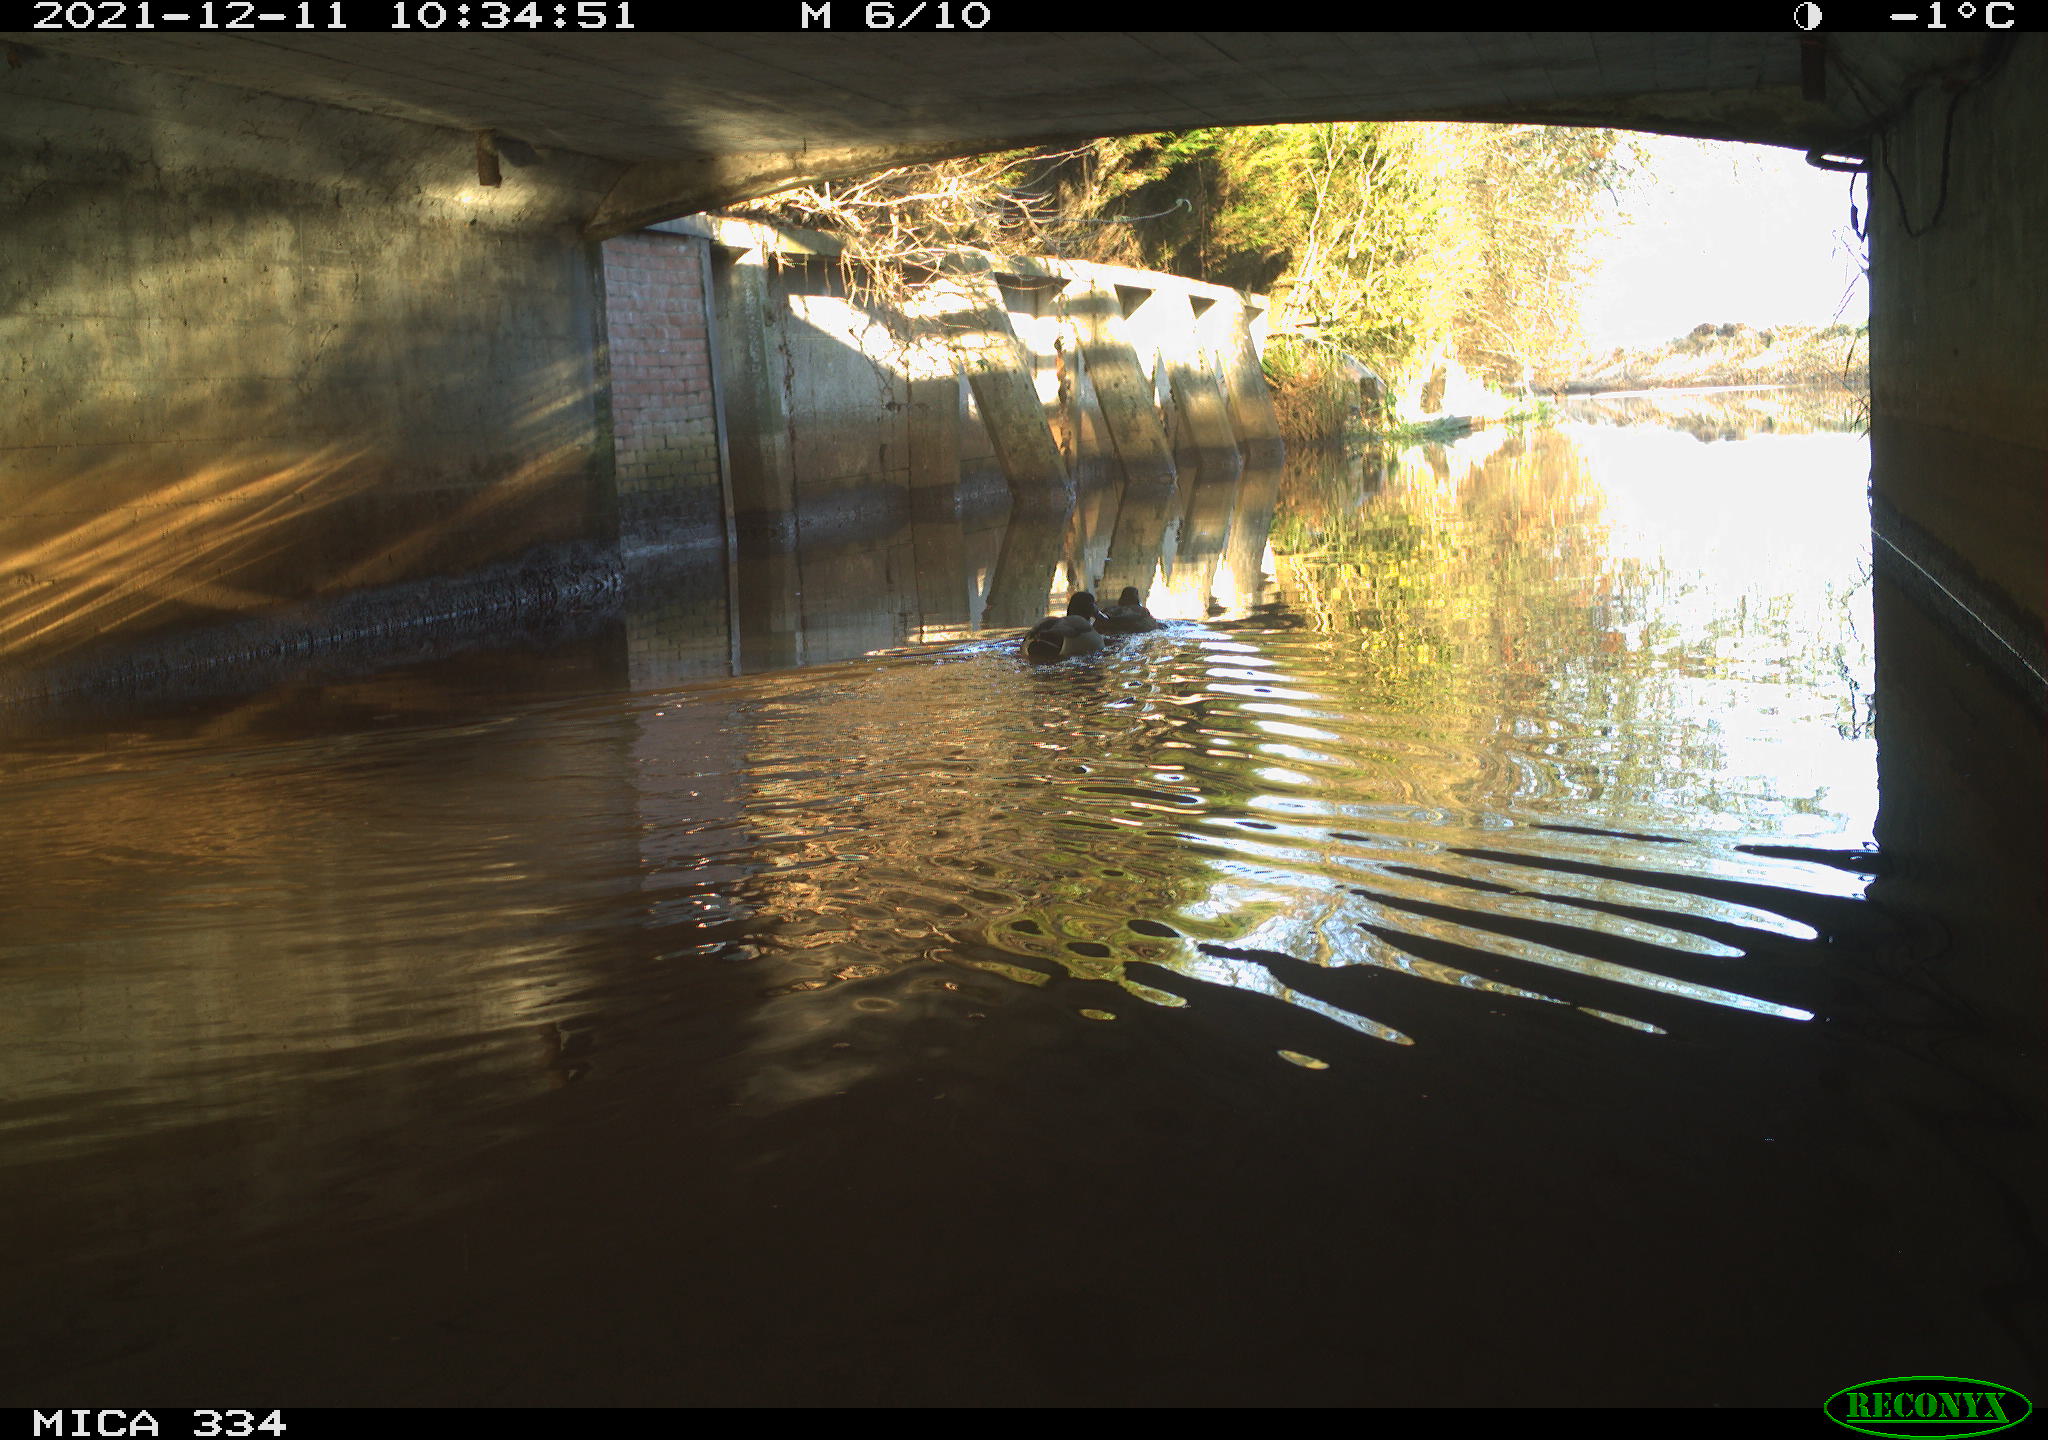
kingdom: Animalia
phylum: Chordata
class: Aves
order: Anseriformes
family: Anatidae
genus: Anas
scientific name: Anas platyrhynchos
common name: Mallard
